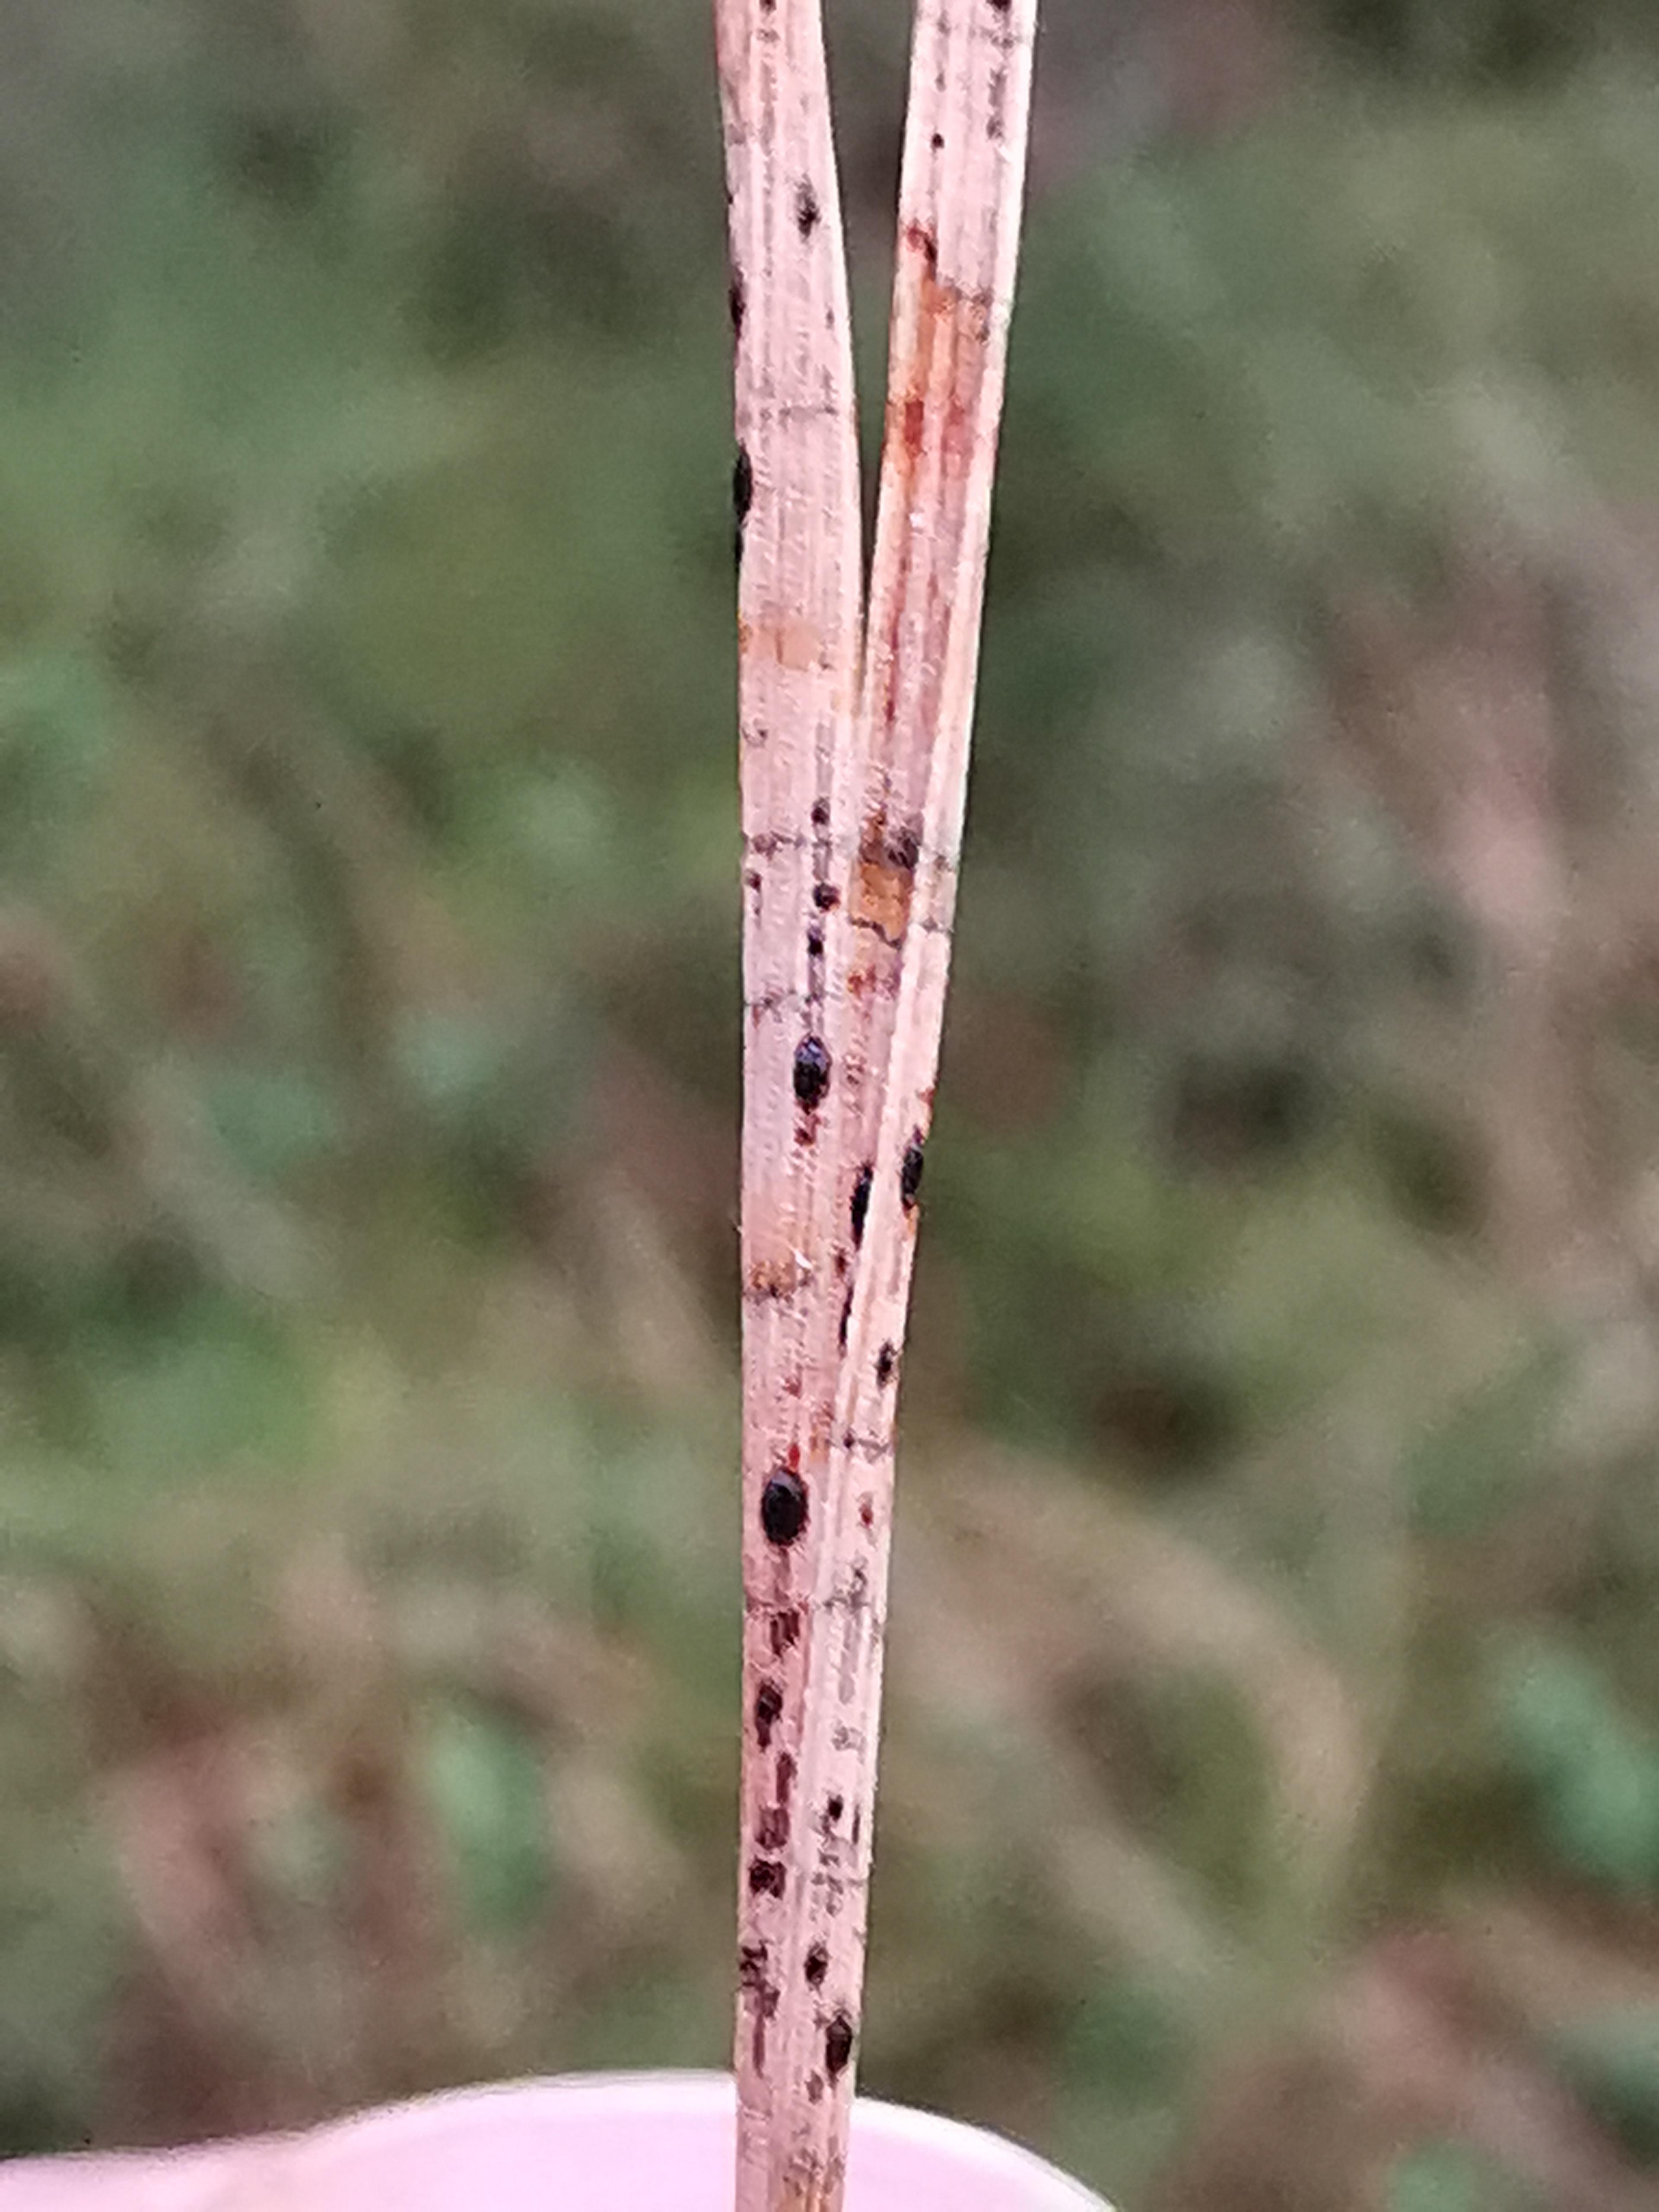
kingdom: Fungi
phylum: Ascomycota
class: Leotiomycetes
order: Rhytismatales
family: Rhytismataceae
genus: Lophodermium
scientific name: Lophodermium pinastri
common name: fyrre-fureplet
